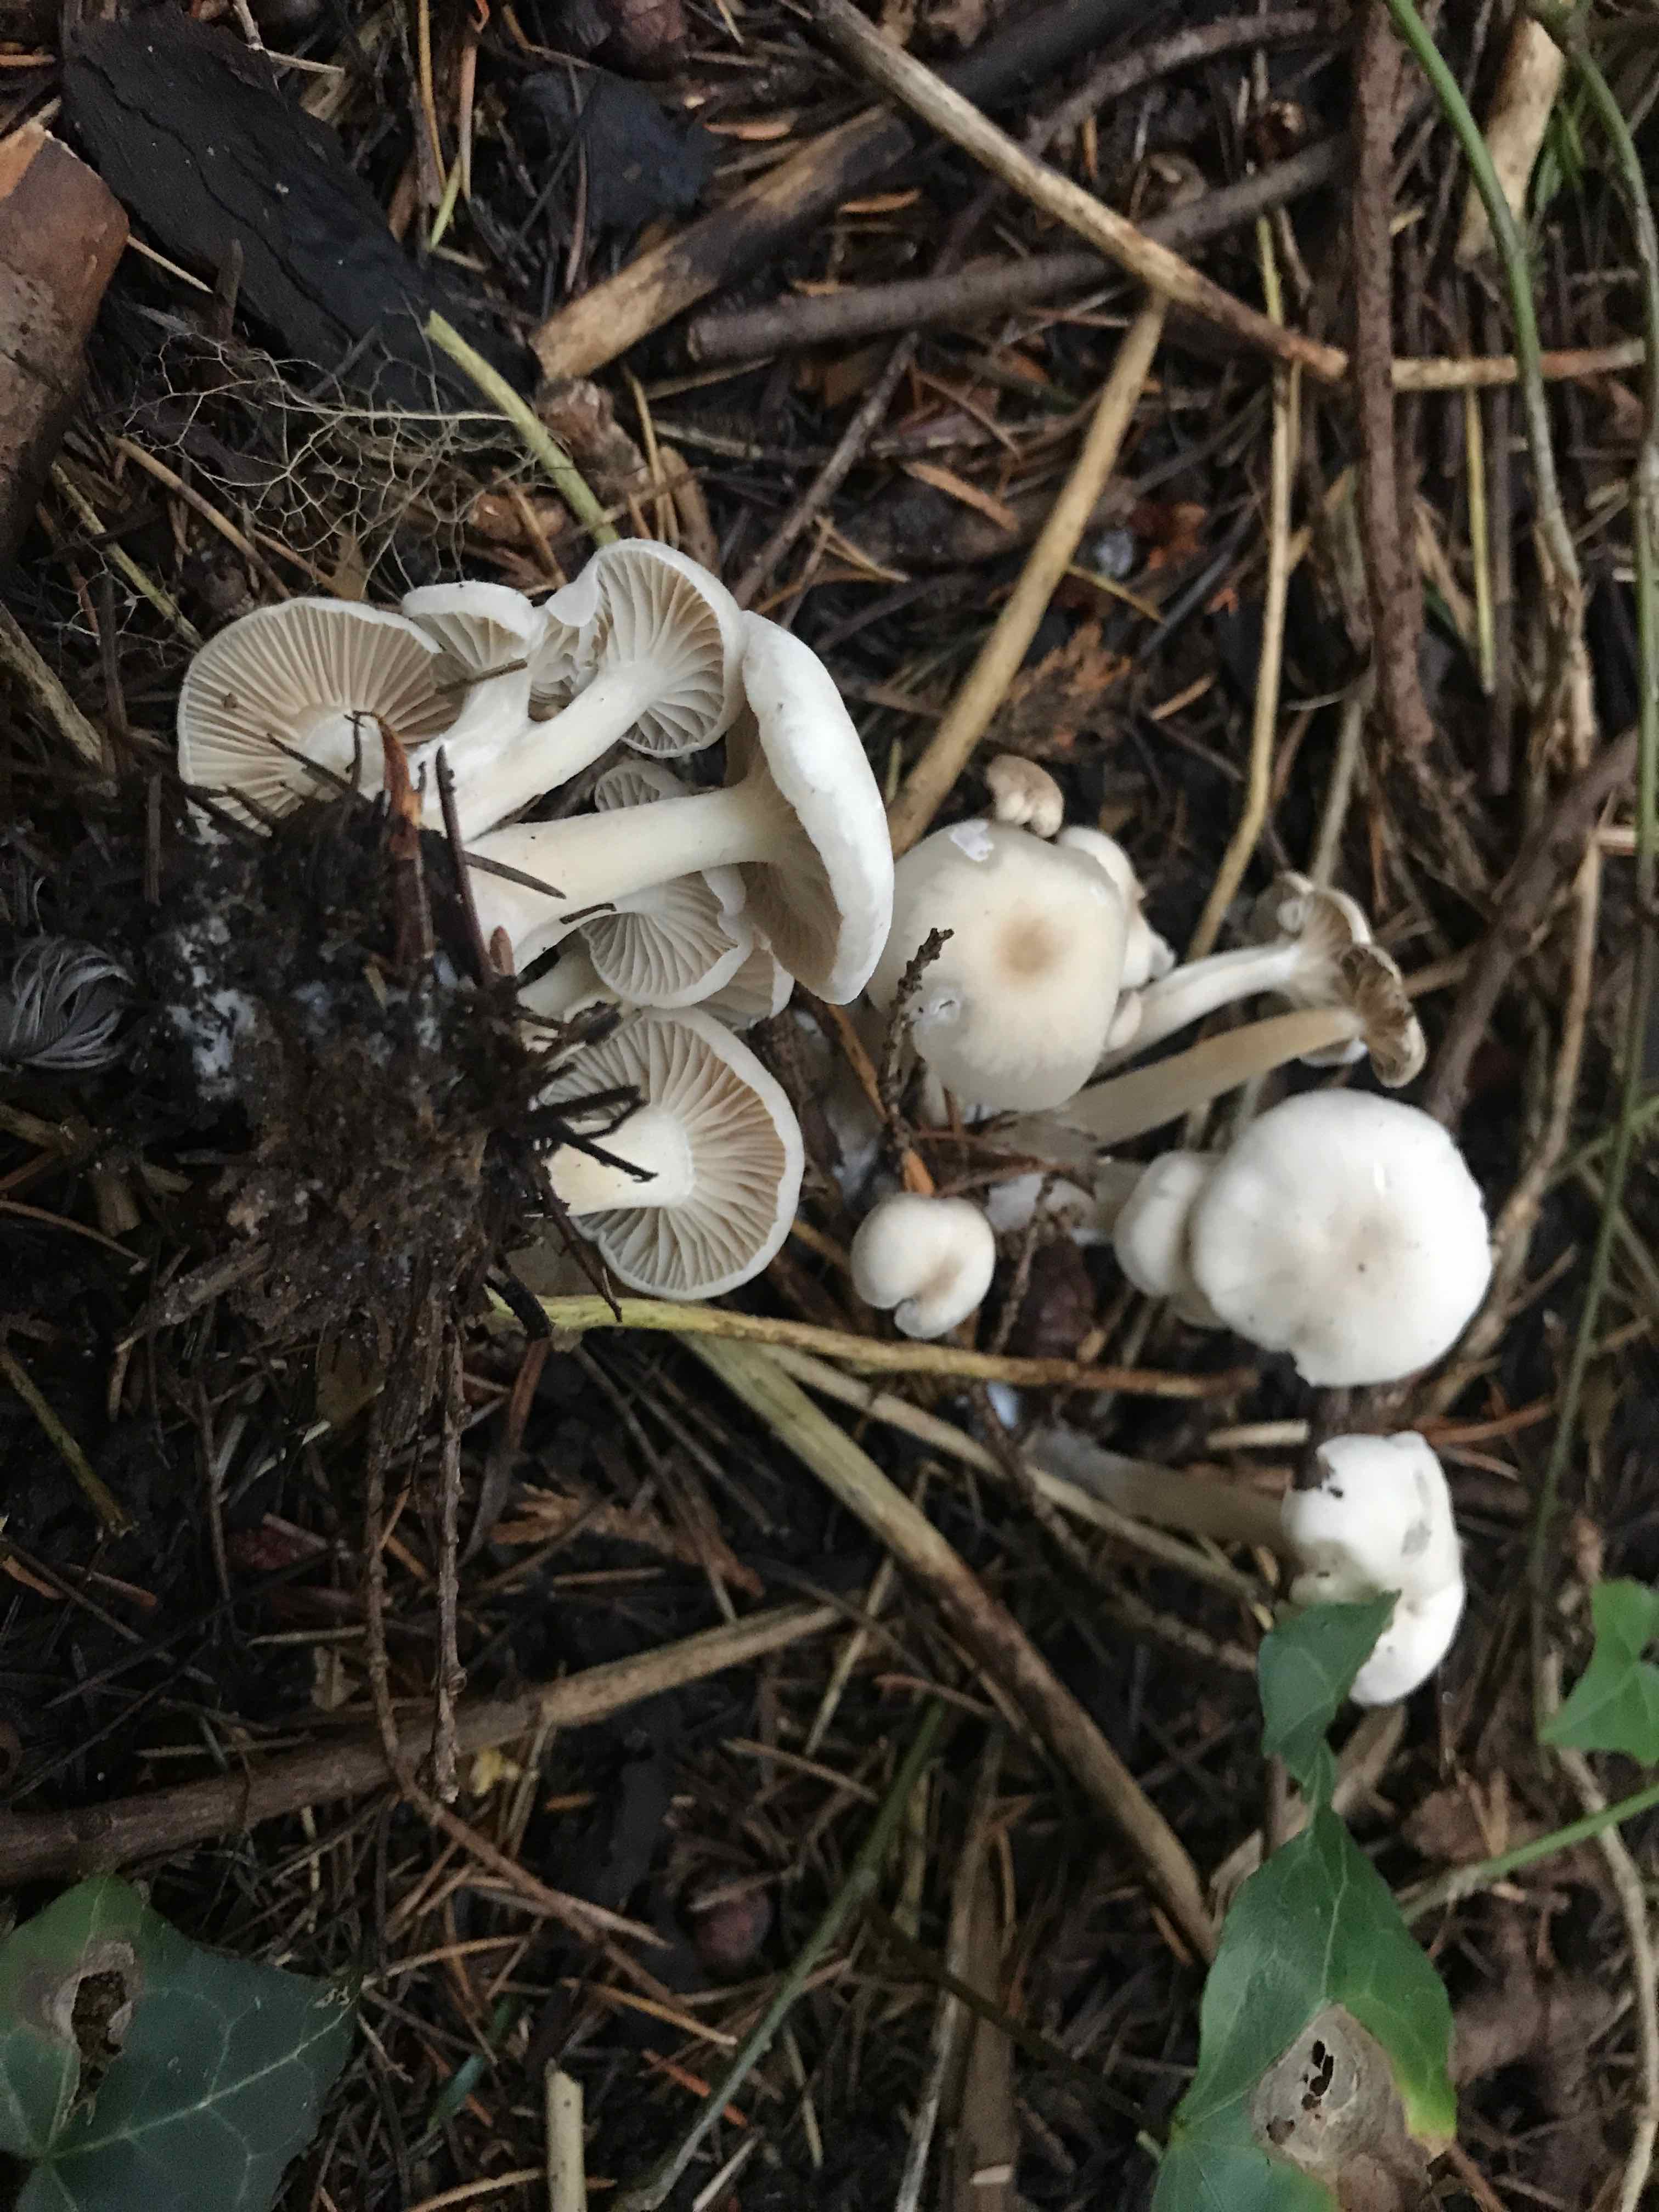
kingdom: Fungi
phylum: Basidiomycota
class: Agaricomycetes
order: Agaricales
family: Tricholomataceae
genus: Clitocybe
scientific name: Clitocybe
